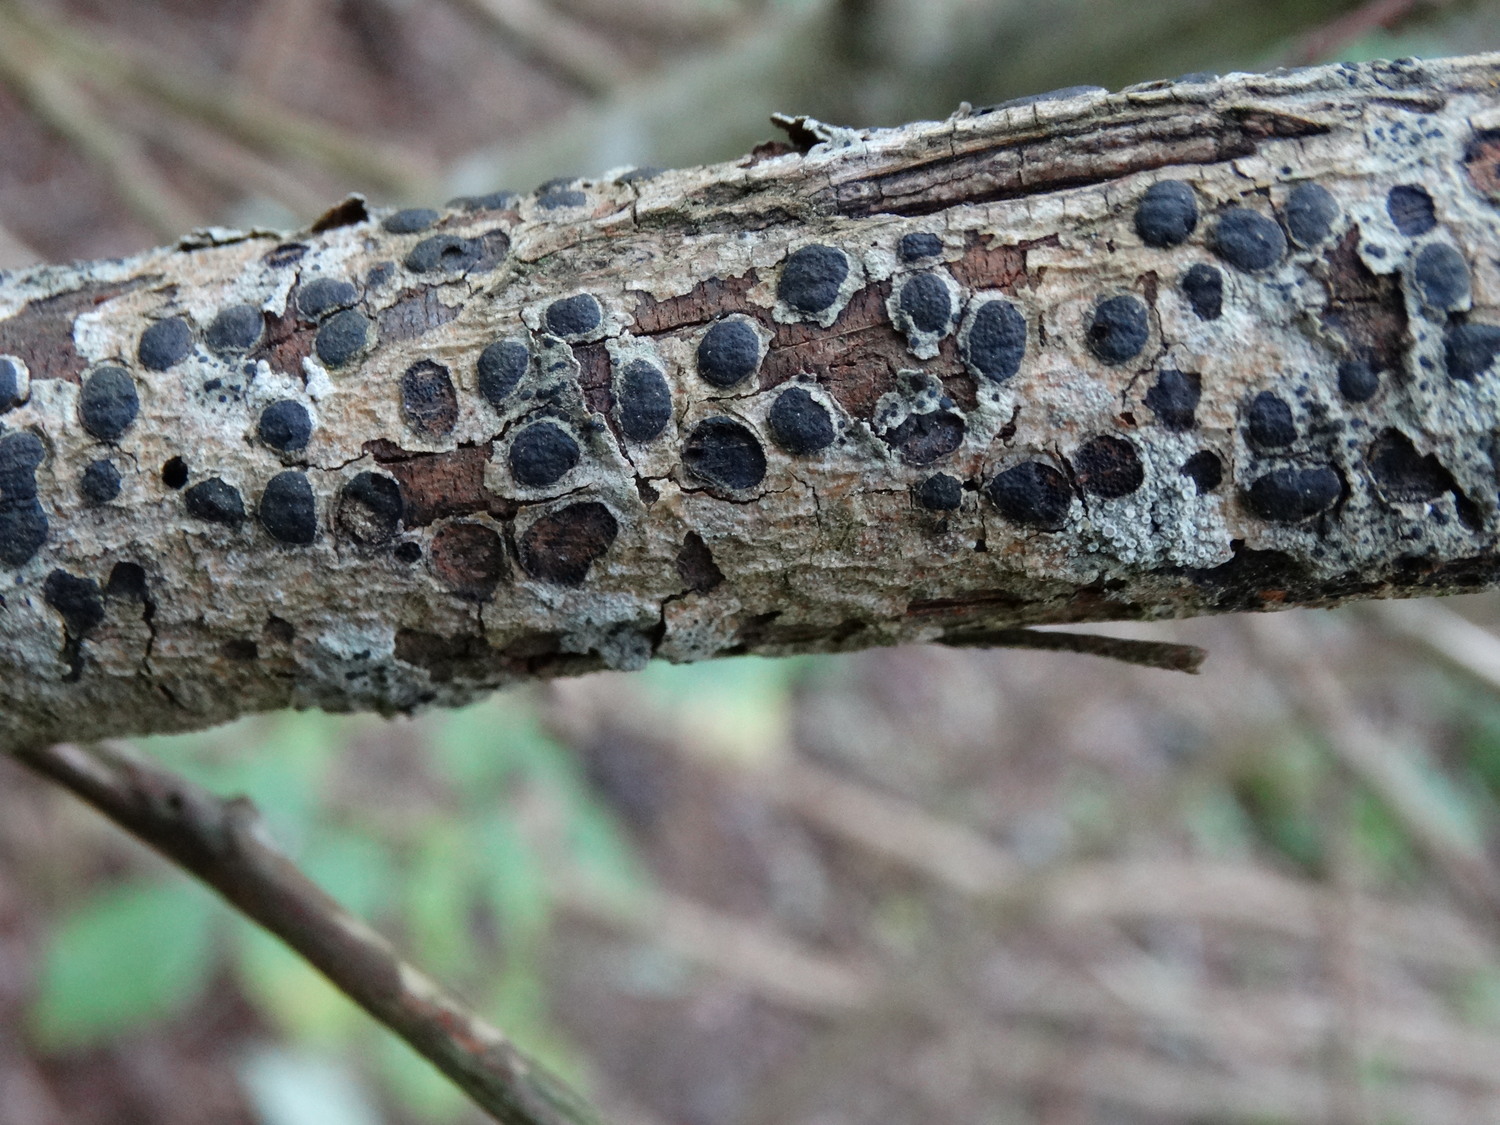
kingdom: Fungi
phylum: Ascomycota
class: Sordariomycetes
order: Xylariales
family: Diatrypaceae
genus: Diatrype
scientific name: Diatrype bullata
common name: pile-kulskorpe
